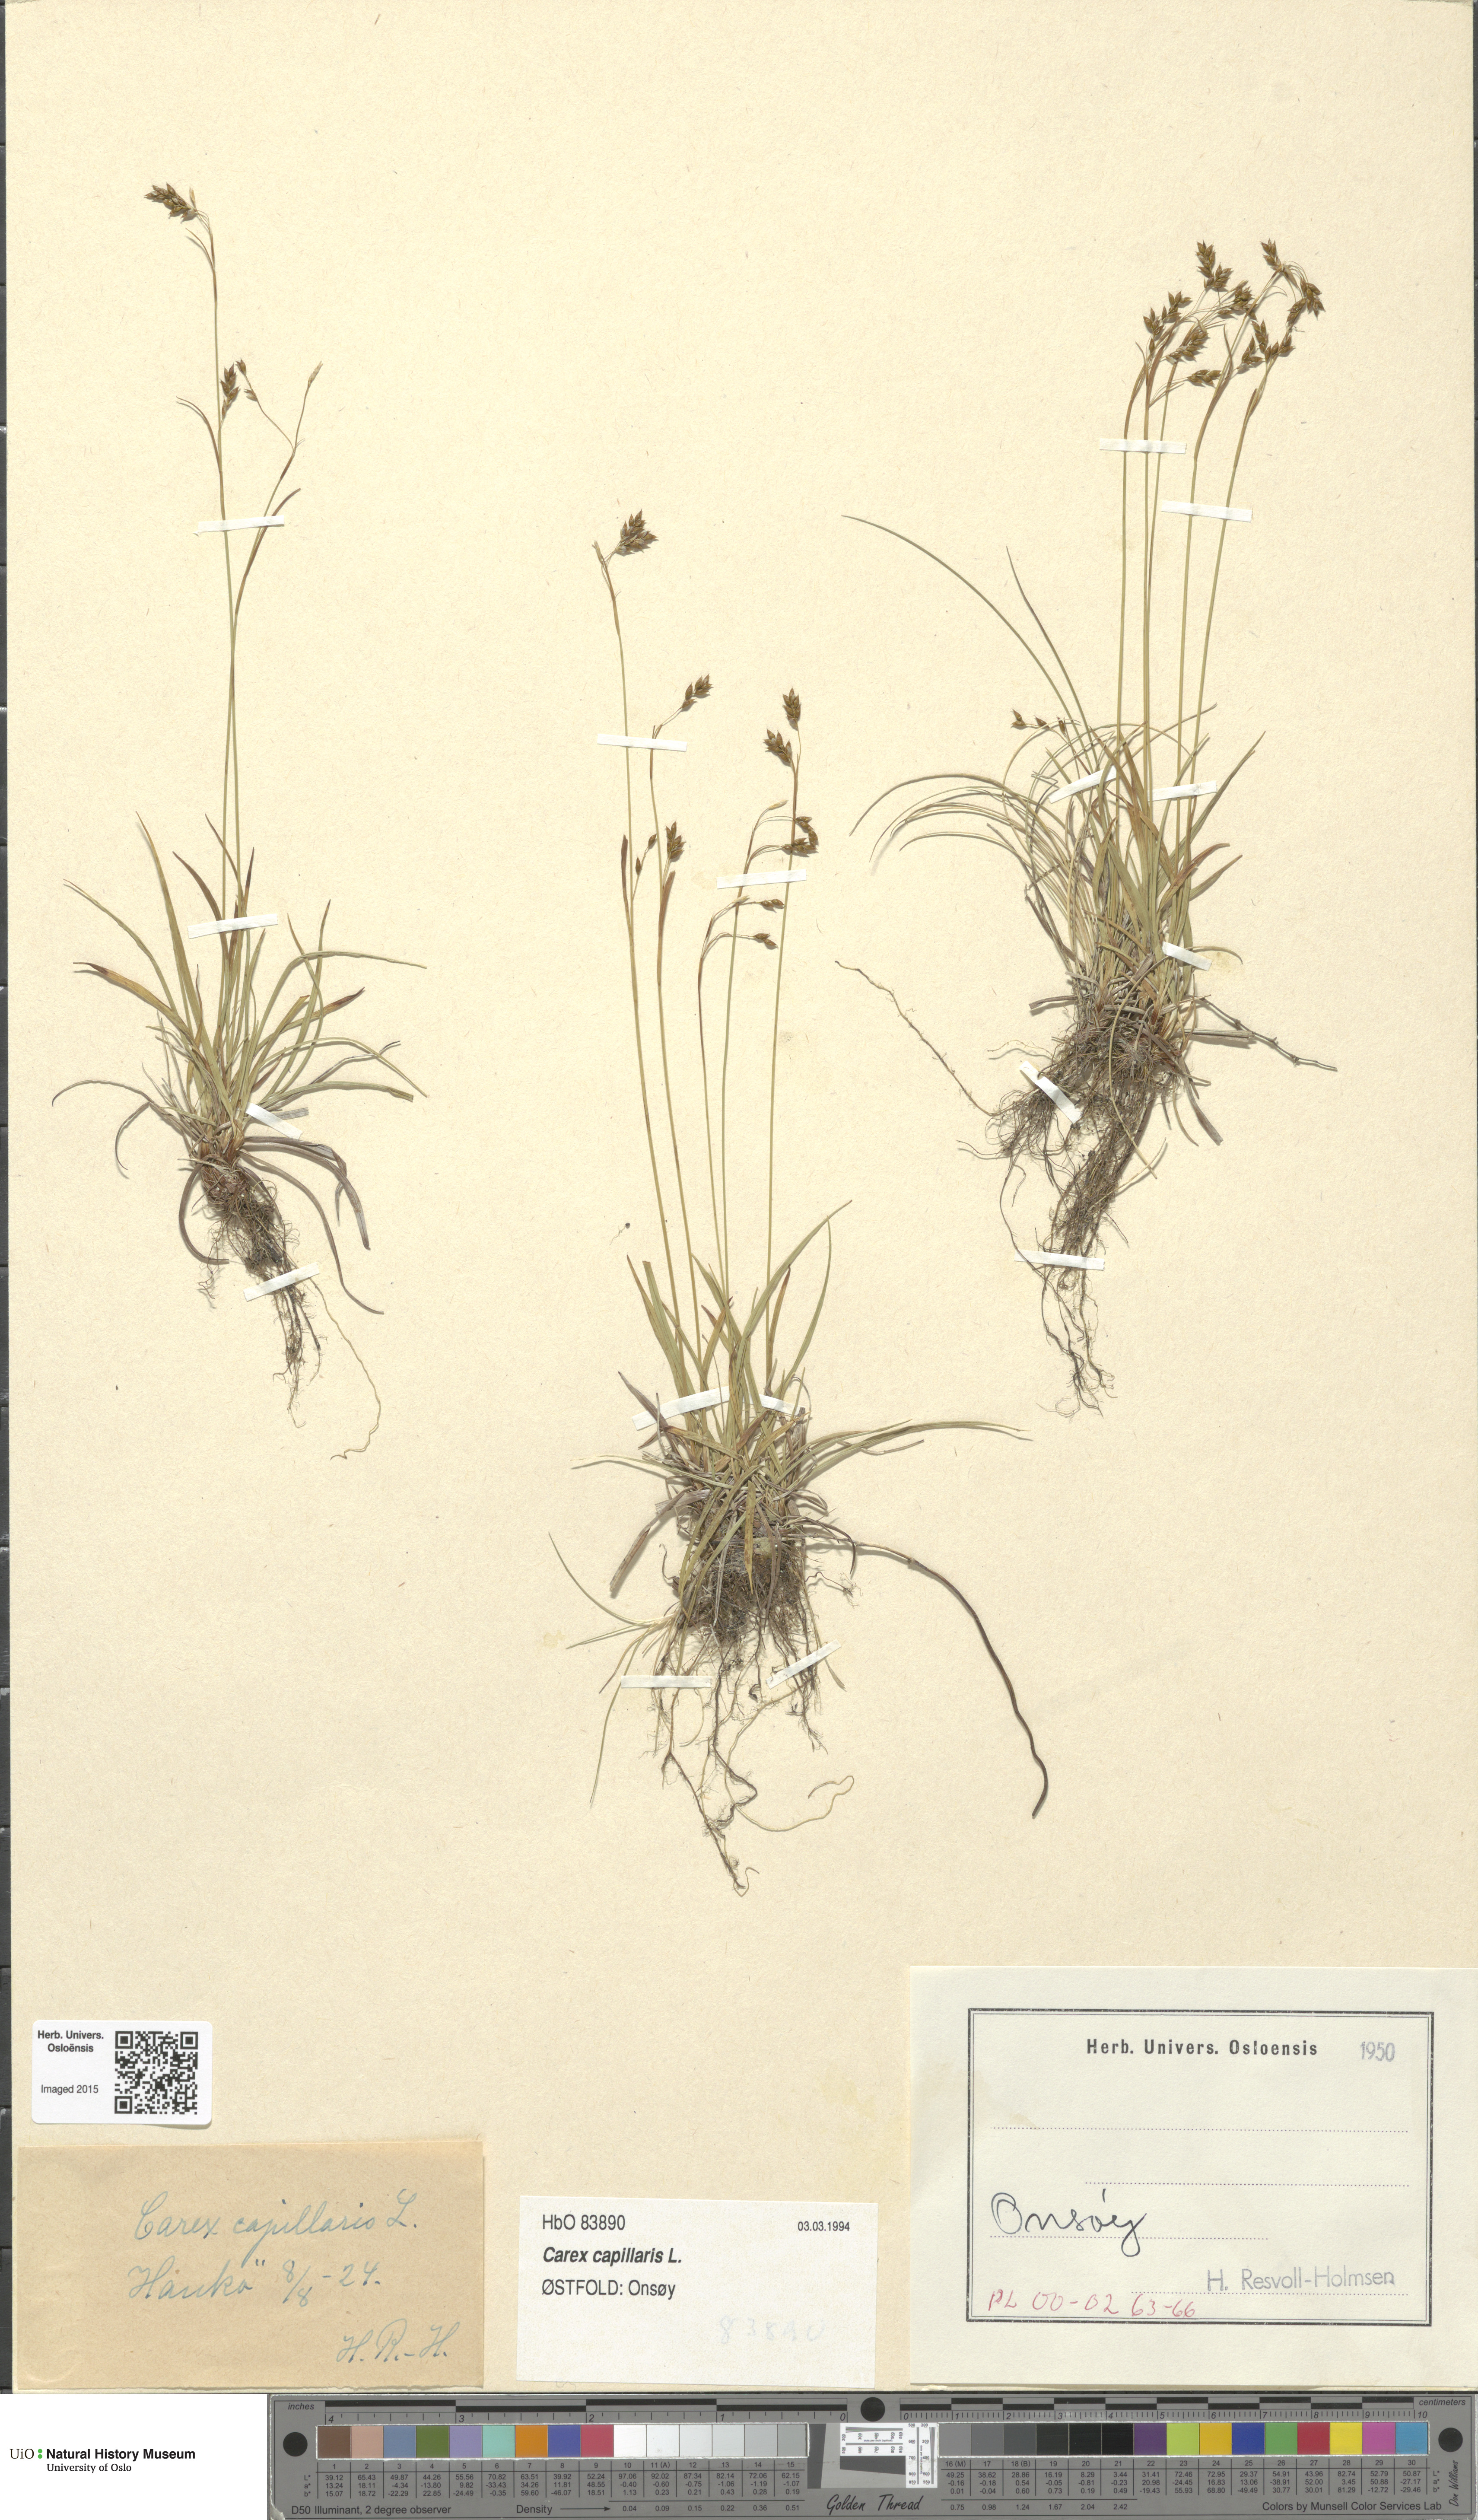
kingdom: Plantae
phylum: Tracheophyta
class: Liliopsida
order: Poales
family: Cyperaceae
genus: Carex
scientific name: Carex capillaris
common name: Hair sedge
